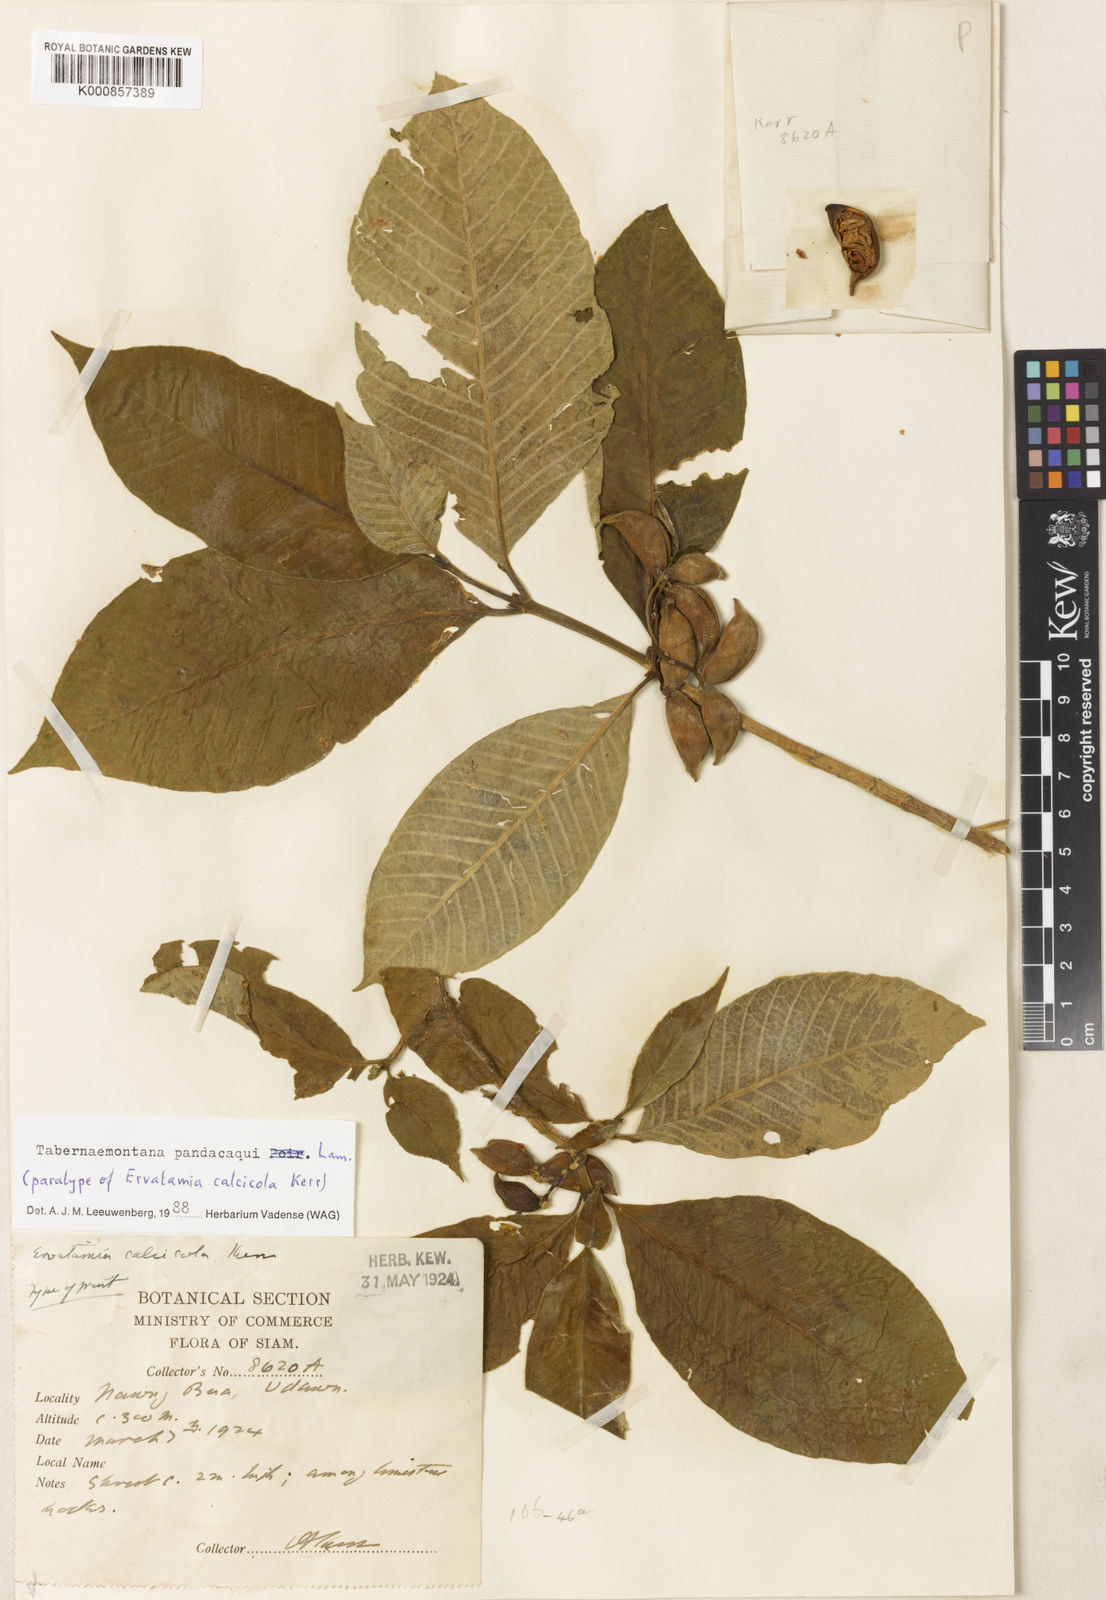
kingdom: Plantae
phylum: Tracheophyta
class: Magnoliopsida
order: Gentianales
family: Apocynaceae
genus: Tabernaemontana
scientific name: Tabernaemontana
